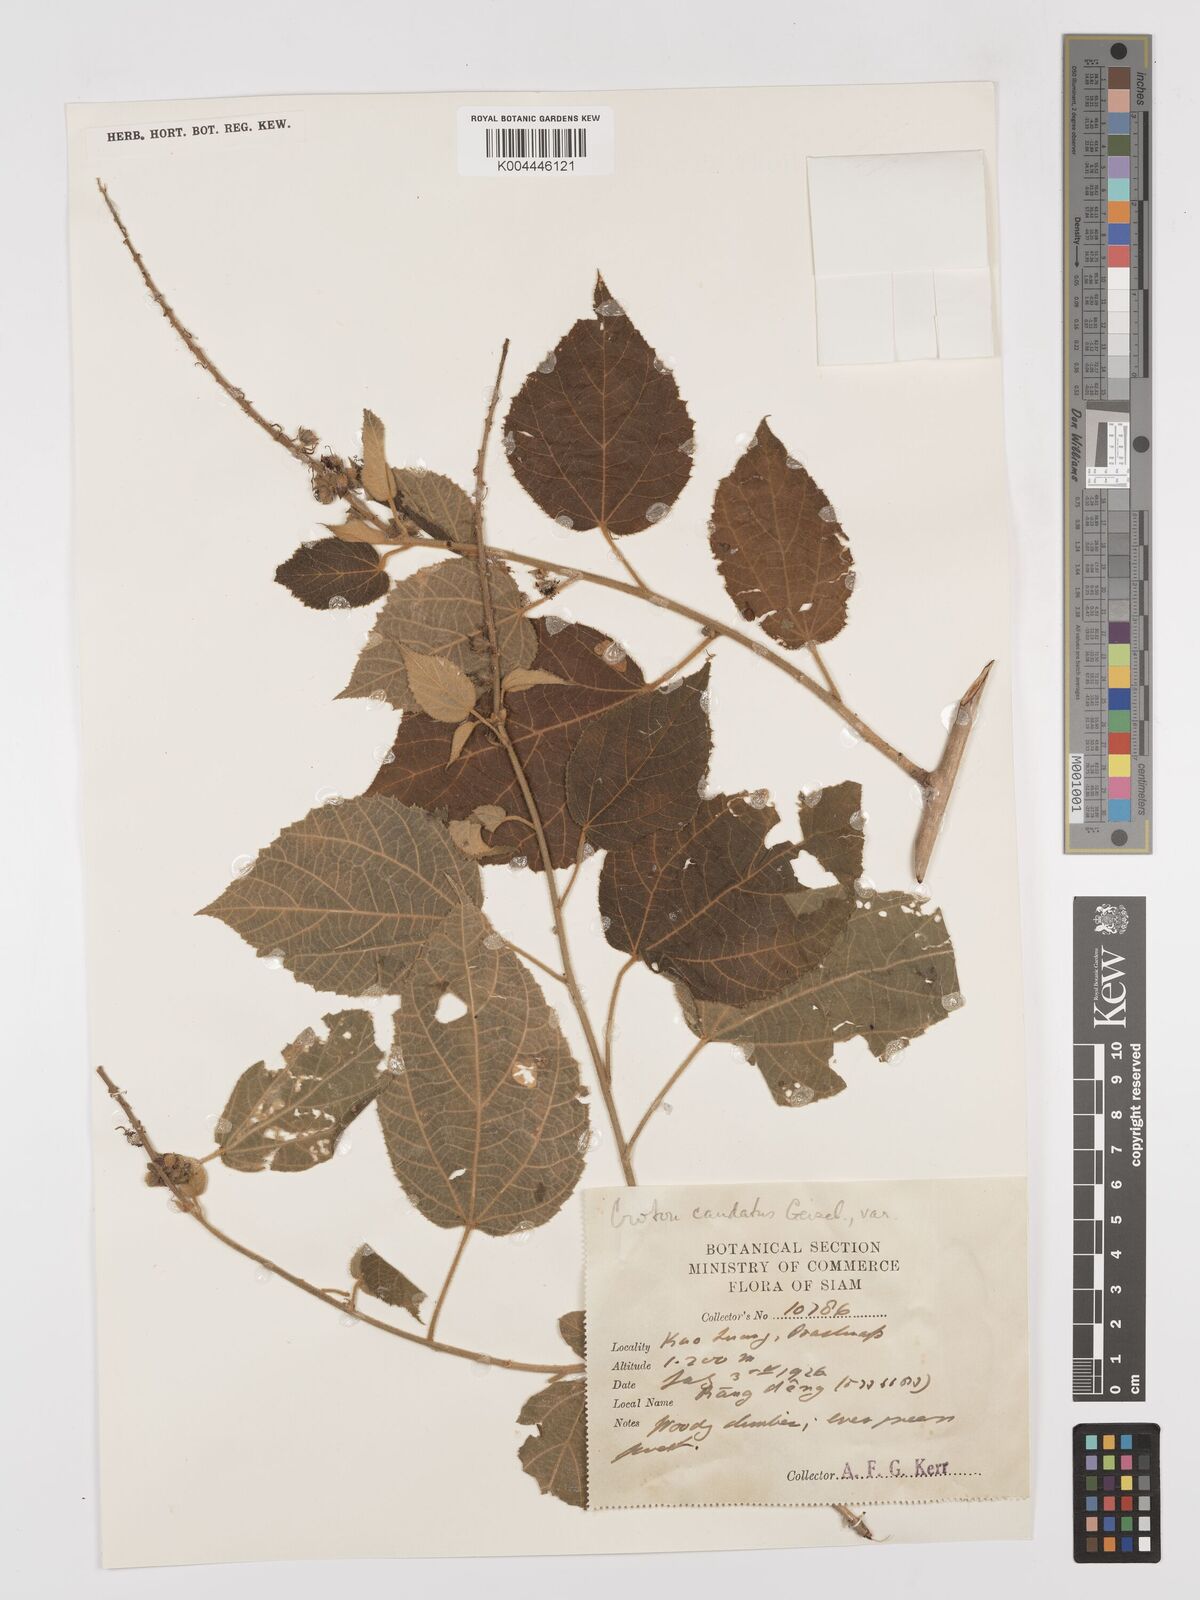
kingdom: Plantae
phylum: Tracheophyta
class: Magnoliopsida
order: Malpighiales
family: Euphorbiaceae
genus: Croton
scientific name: Croton caudatus
